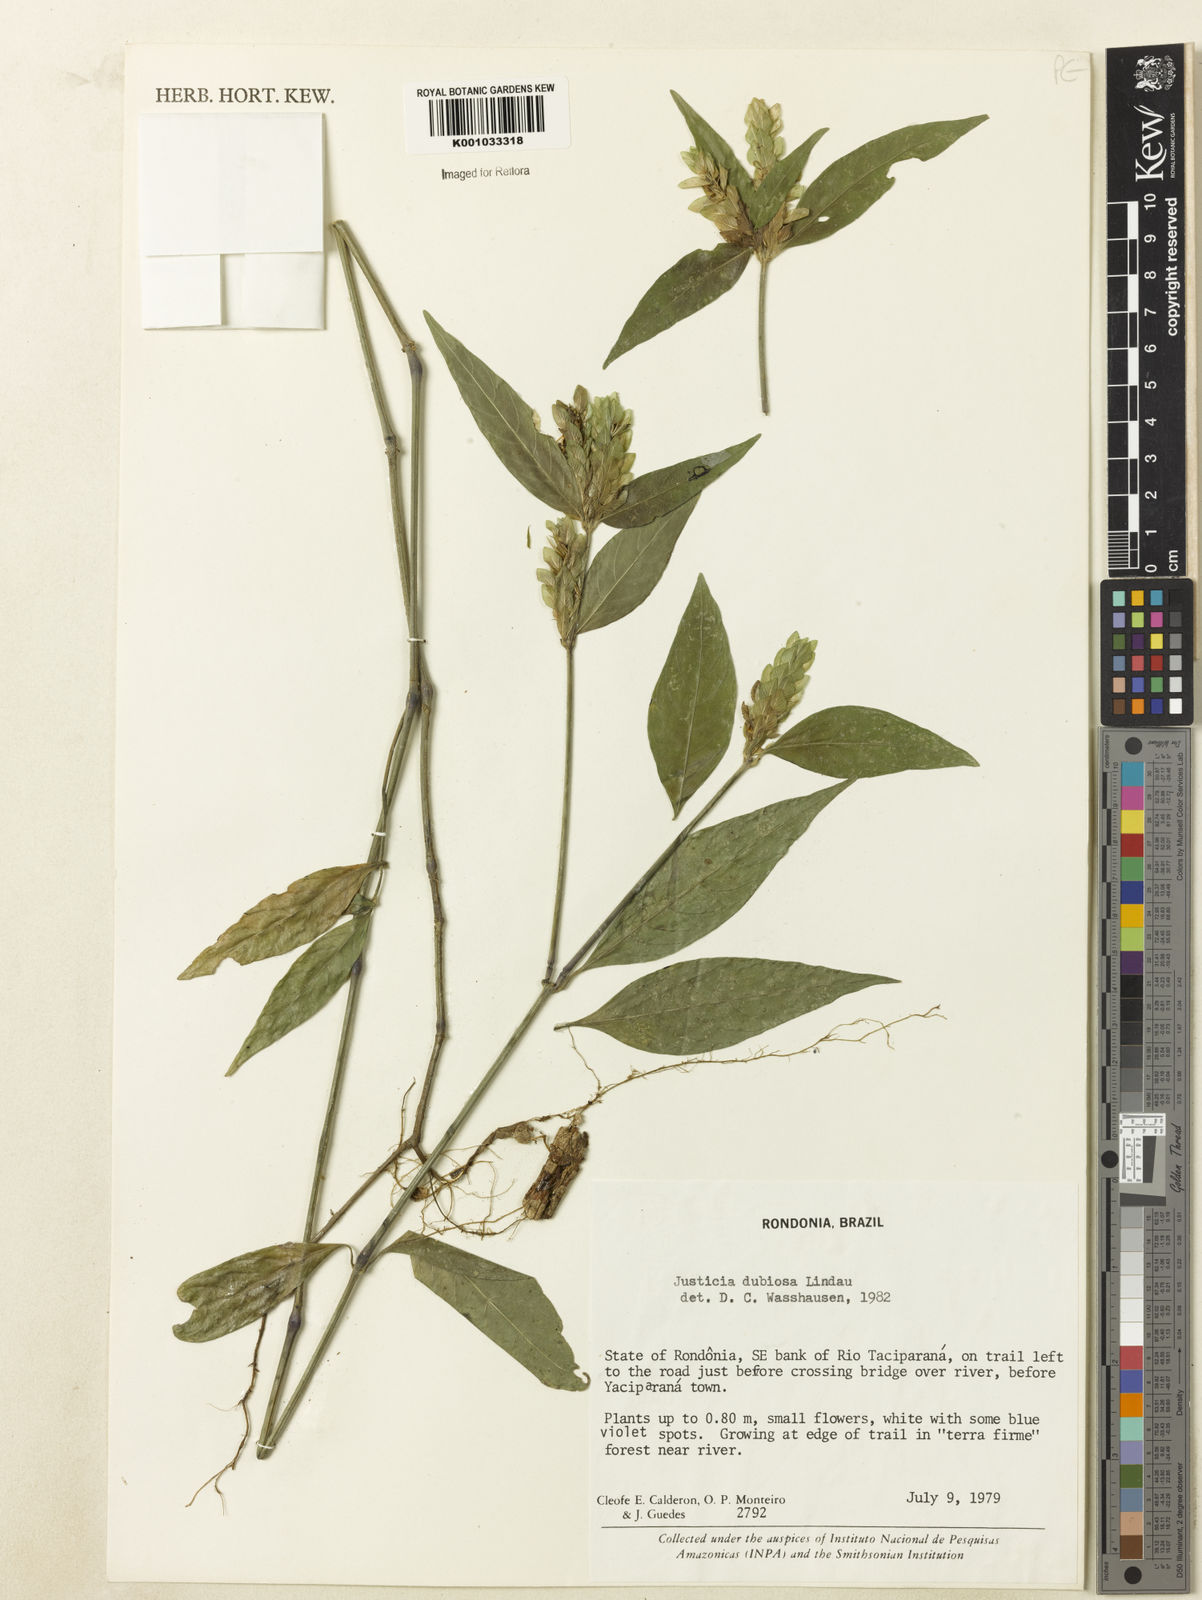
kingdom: Plantae
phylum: Tracheophyta
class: Magnoliopsida
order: Lamiales
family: Acanthaceae
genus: Justicia
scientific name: Justicia dubiosa
